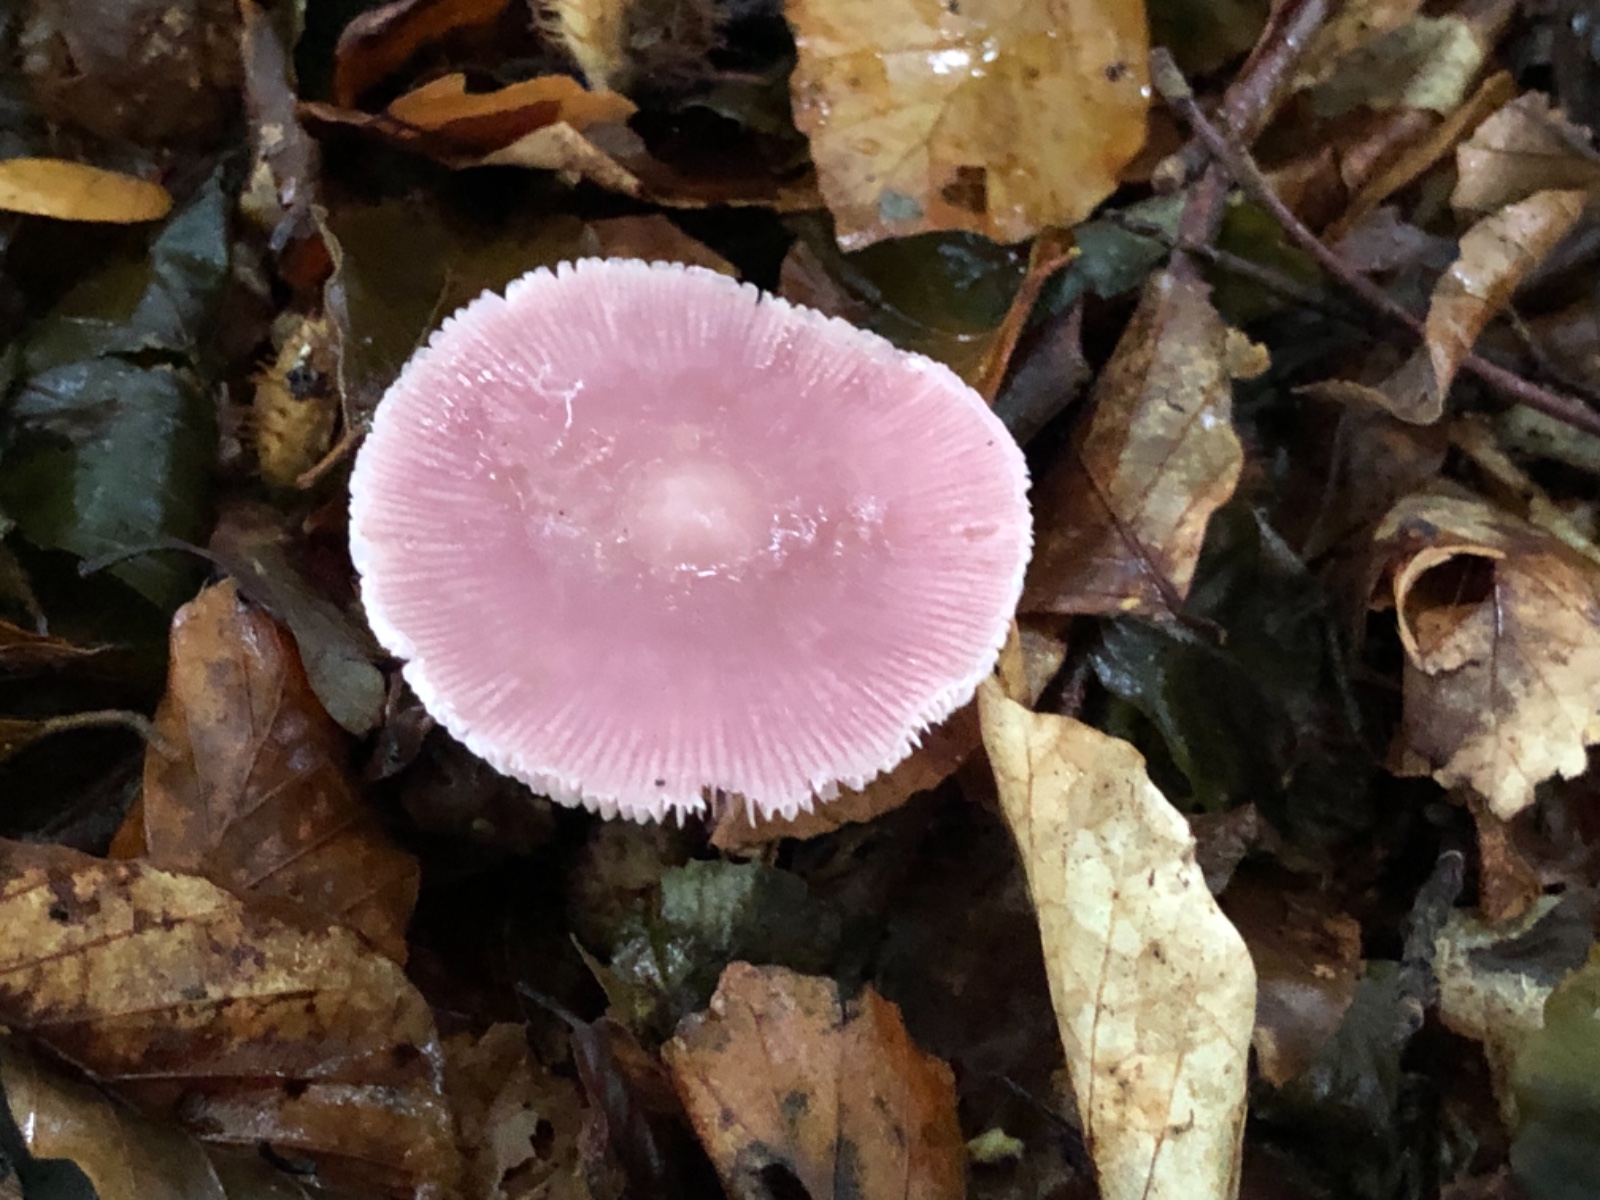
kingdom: Fungi
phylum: Basidiomycota
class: Agaricomycetes
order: Agaricales
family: Mycenaceae
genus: Mycena
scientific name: Mycena rosea
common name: rosa huesvamp
